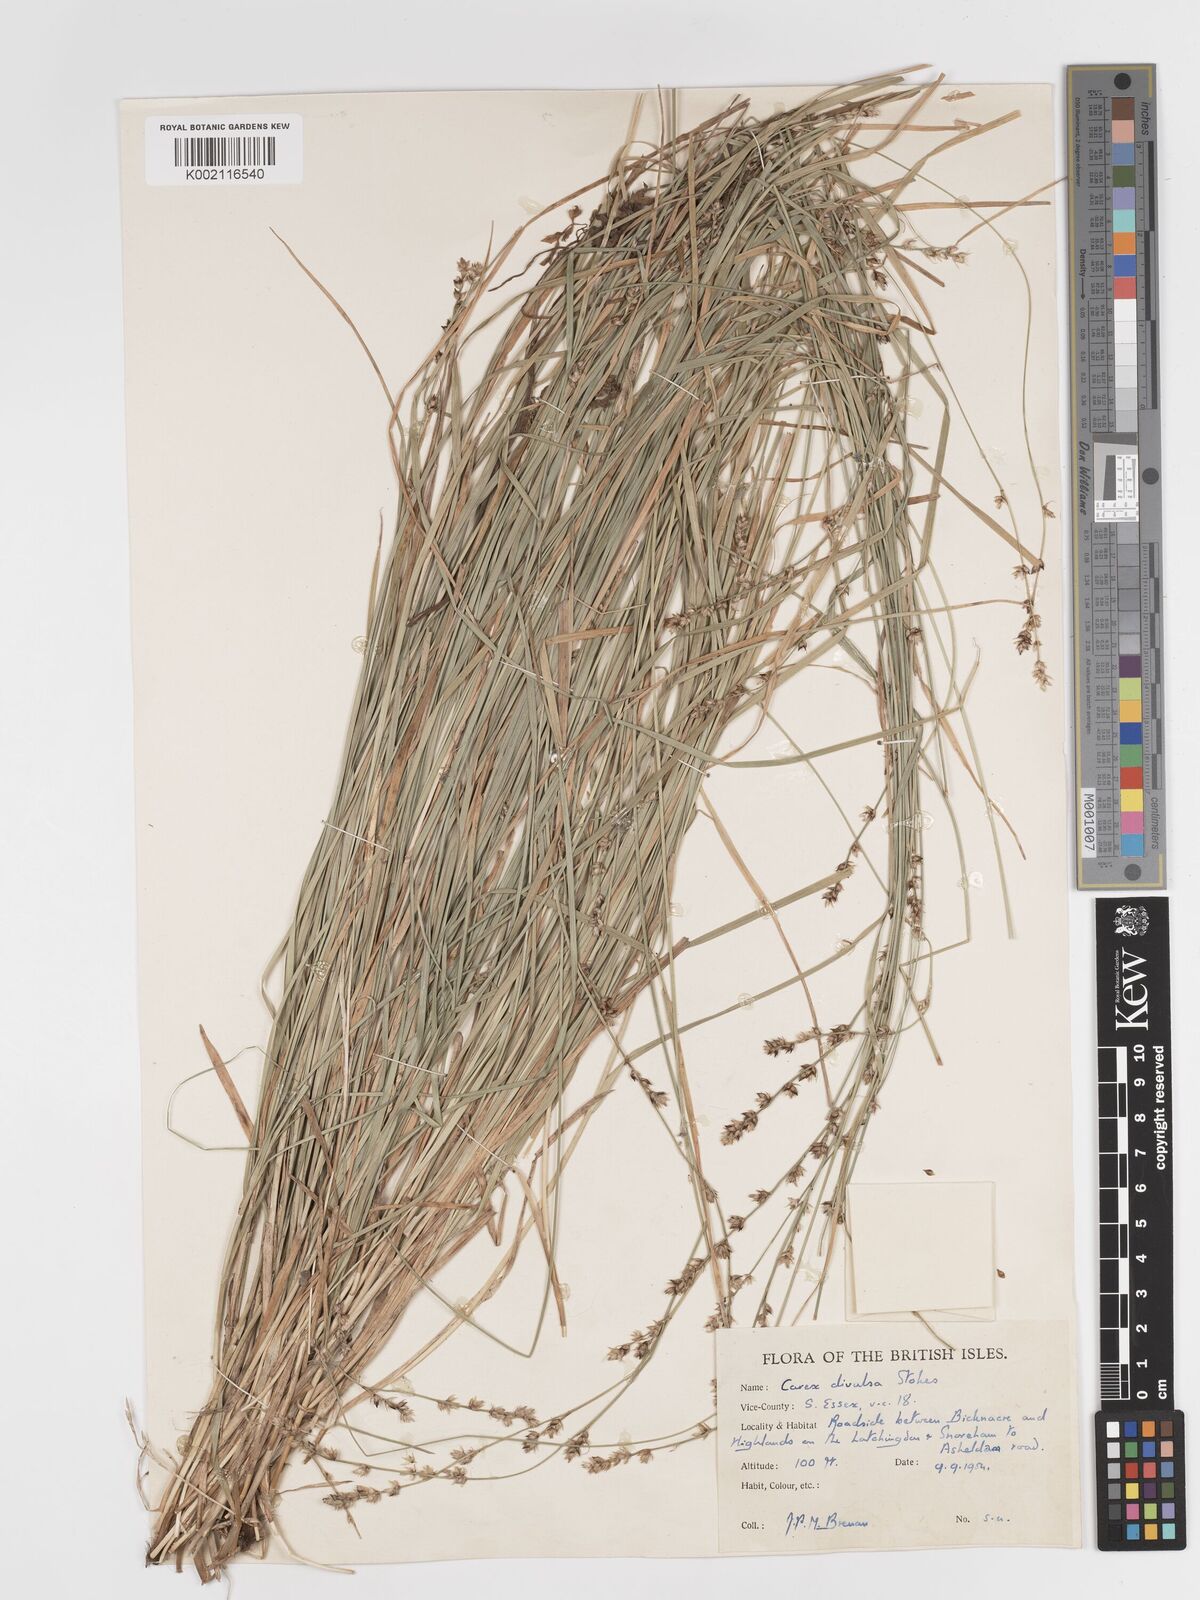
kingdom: Plantae
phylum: Tracheophyta
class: Liliopsida
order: Poales
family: Cyperaceae
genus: Carex
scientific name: Carex divulsa
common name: Grassland sedge
